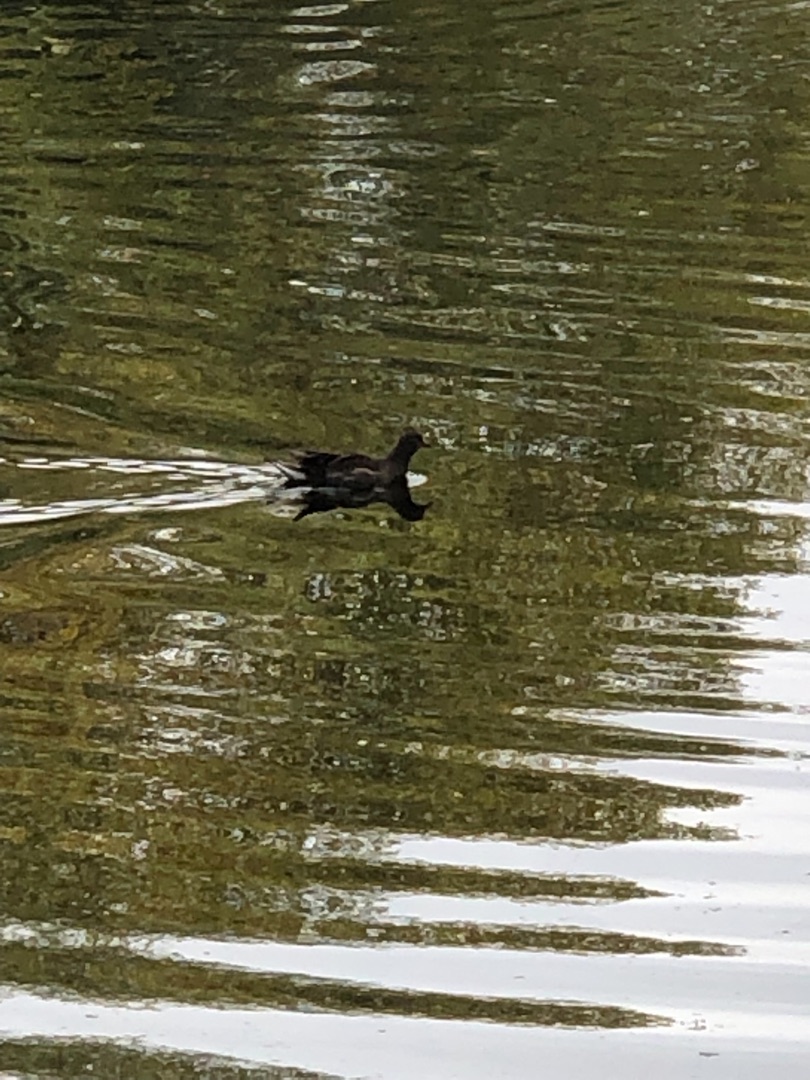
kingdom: Animalia
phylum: Chordata
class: Aves
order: Gruiformes
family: Rallidae
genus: Gallinula
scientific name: Gallinula chloropus
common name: Grønbenet rørhøne
